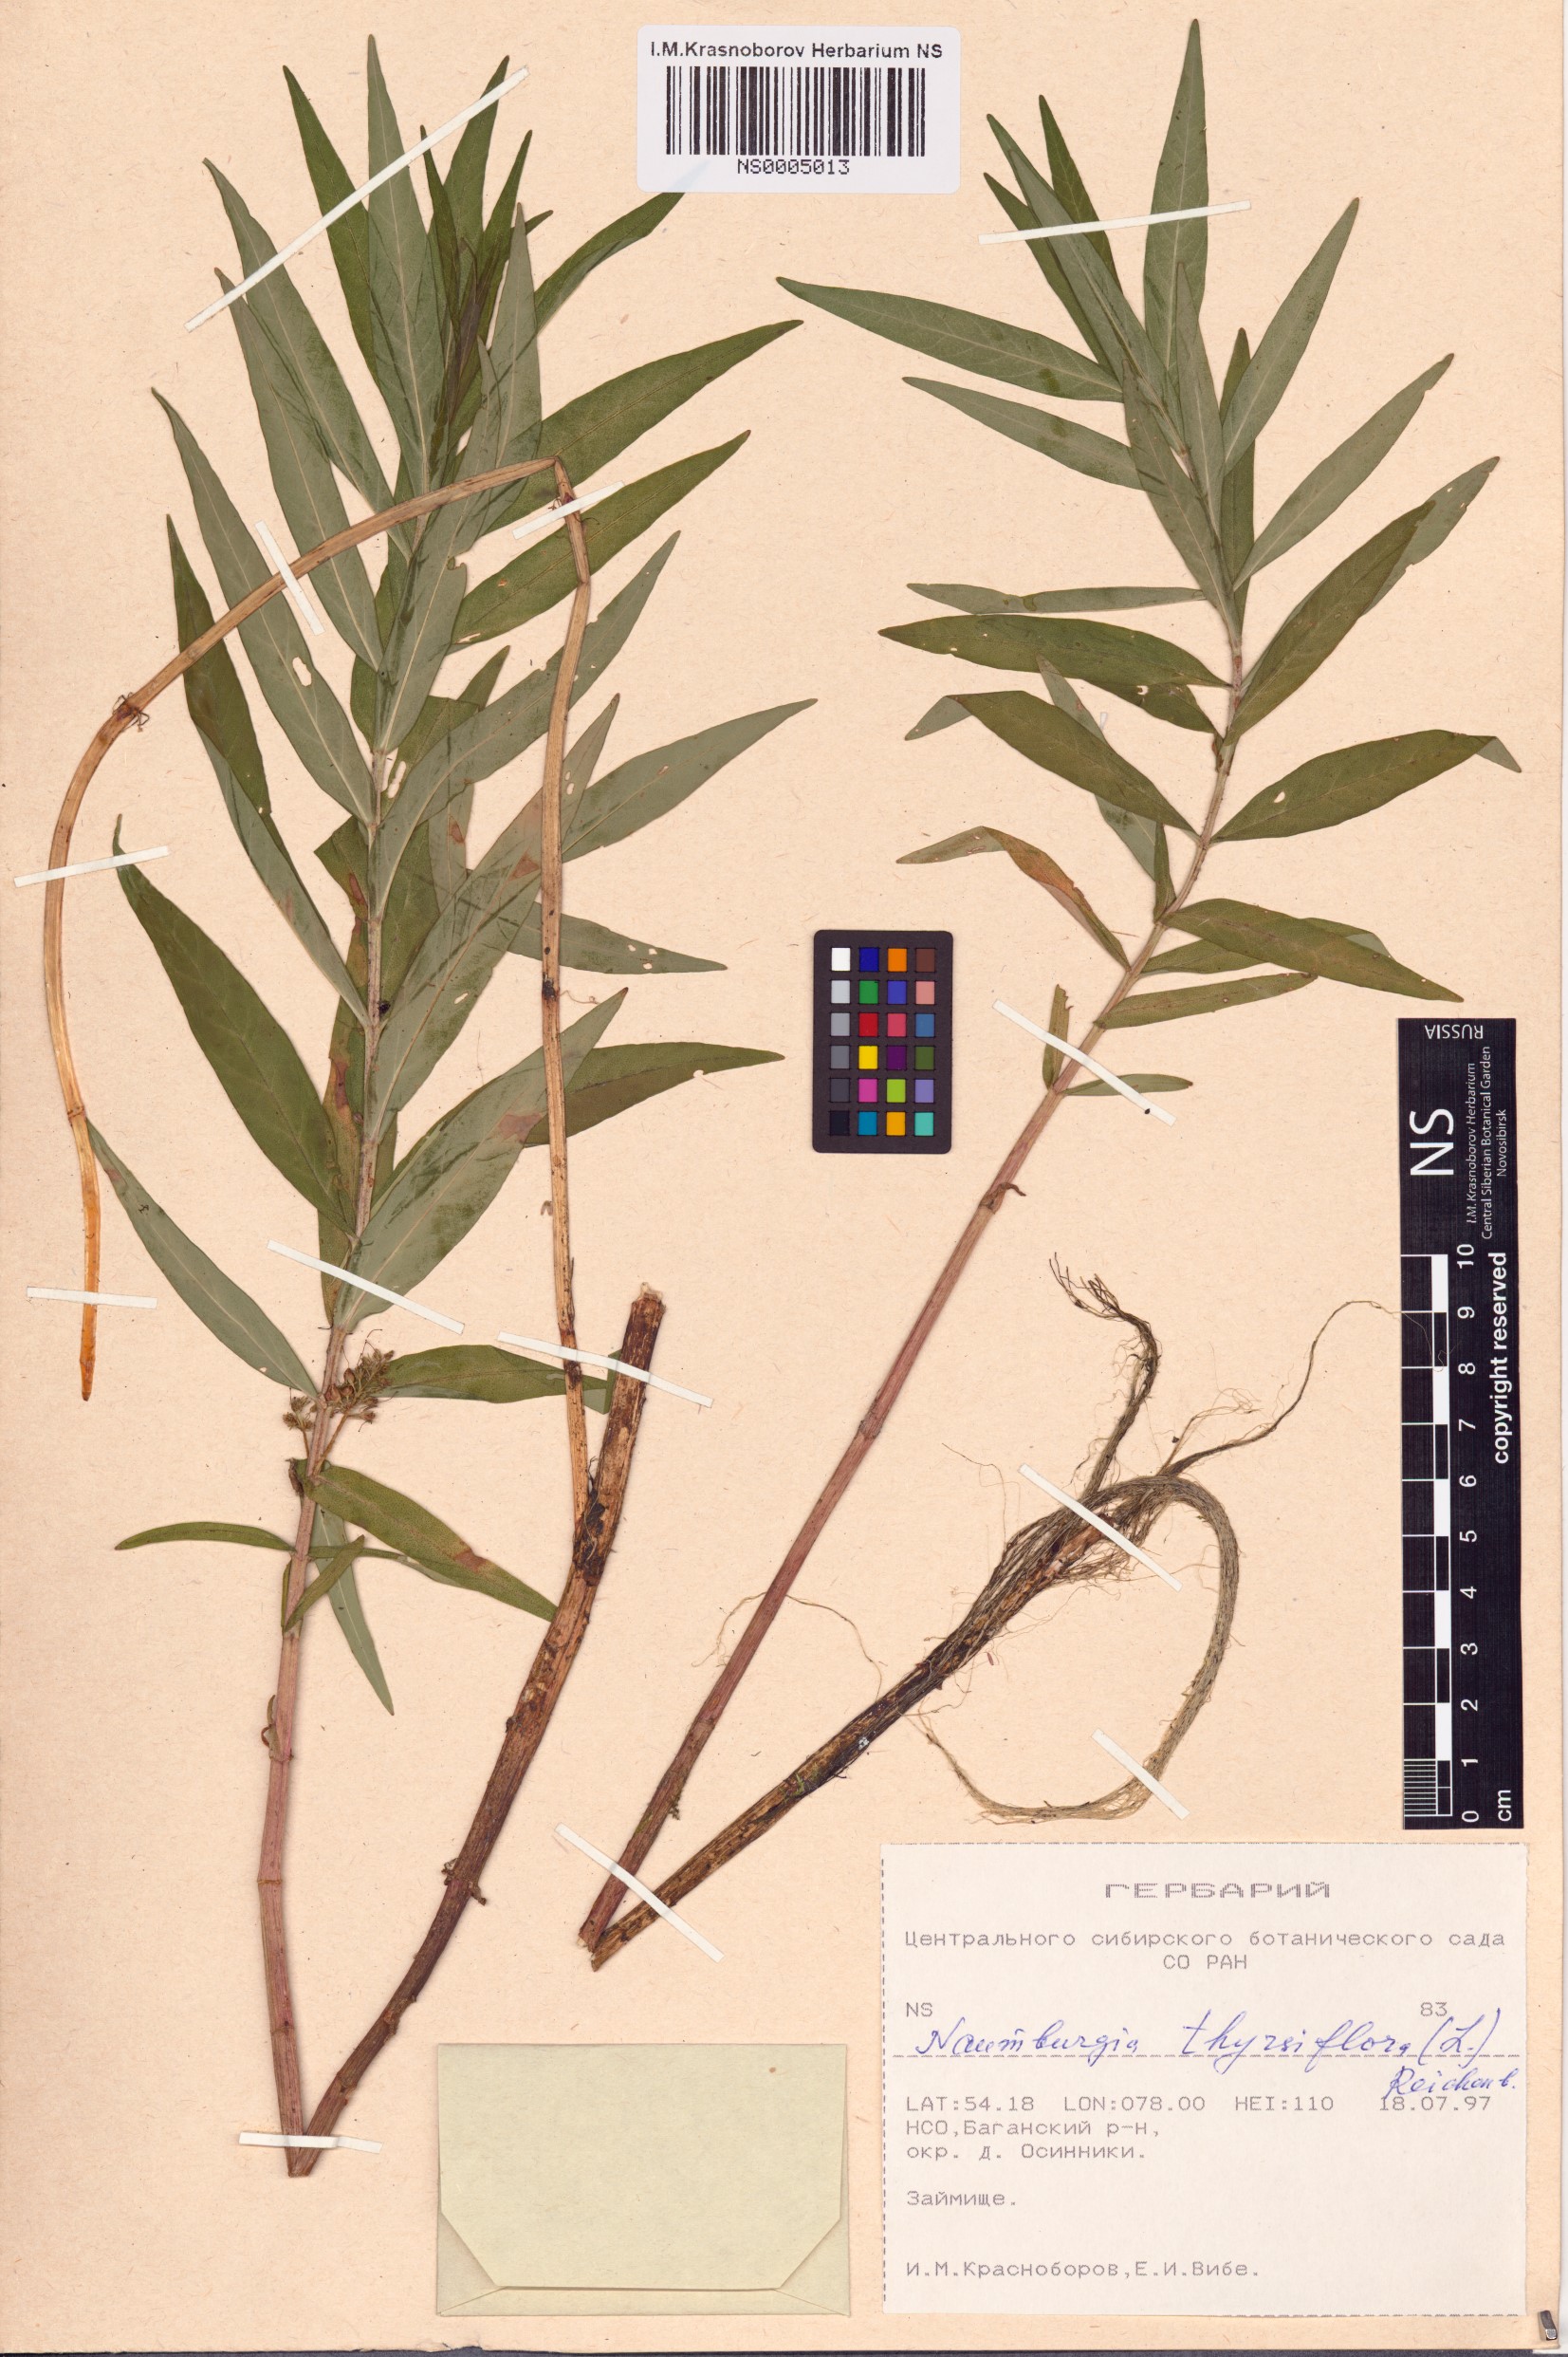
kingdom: Plantae
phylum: Tracheophyta
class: Magnoliopsida
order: Ericales
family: Primulaceae
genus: Lysimachia
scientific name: Lysimachia thyrsiflora
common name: Tufted loosestrife
